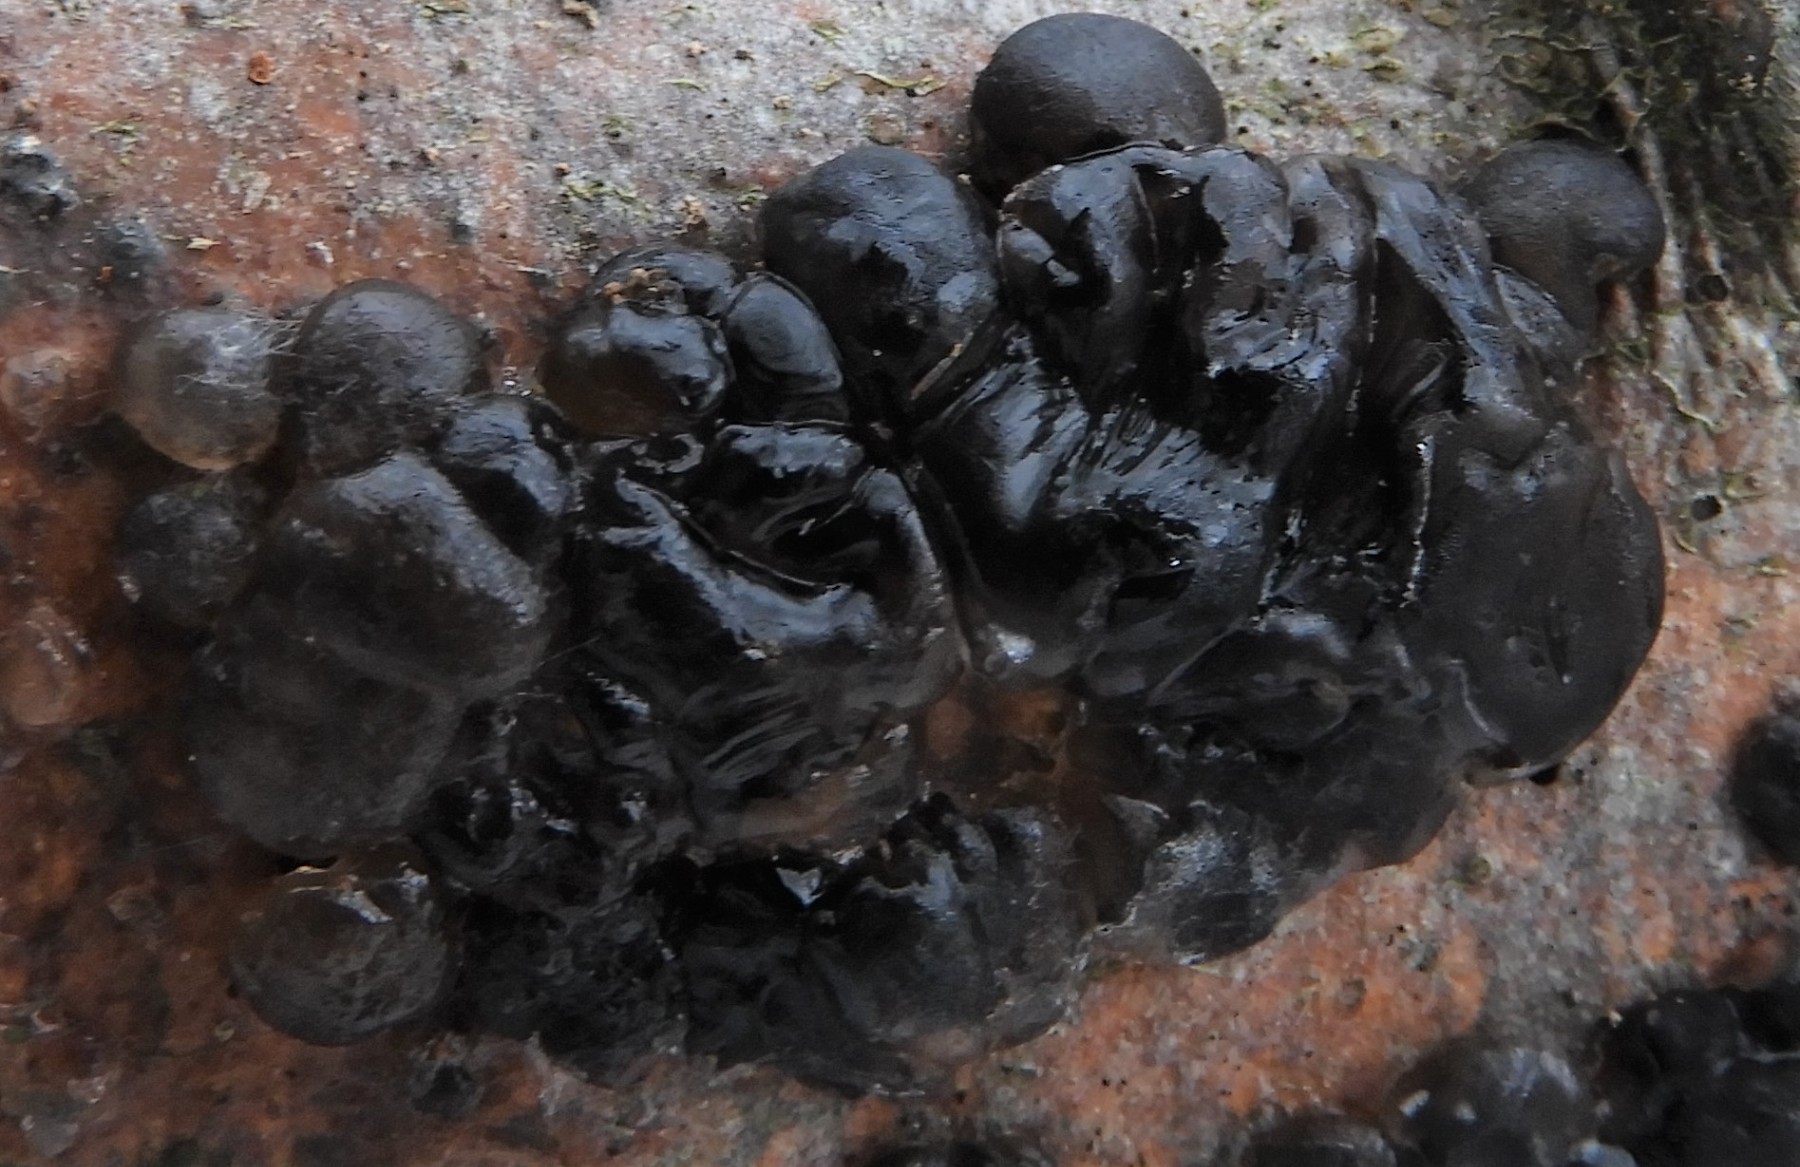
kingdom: Fungi
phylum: Basidiomycota
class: Agaricomycetes
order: Auriculariales
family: Auriculariaceae
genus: Exidia
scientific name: Exidia nigricans
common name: almindelig bævretop
